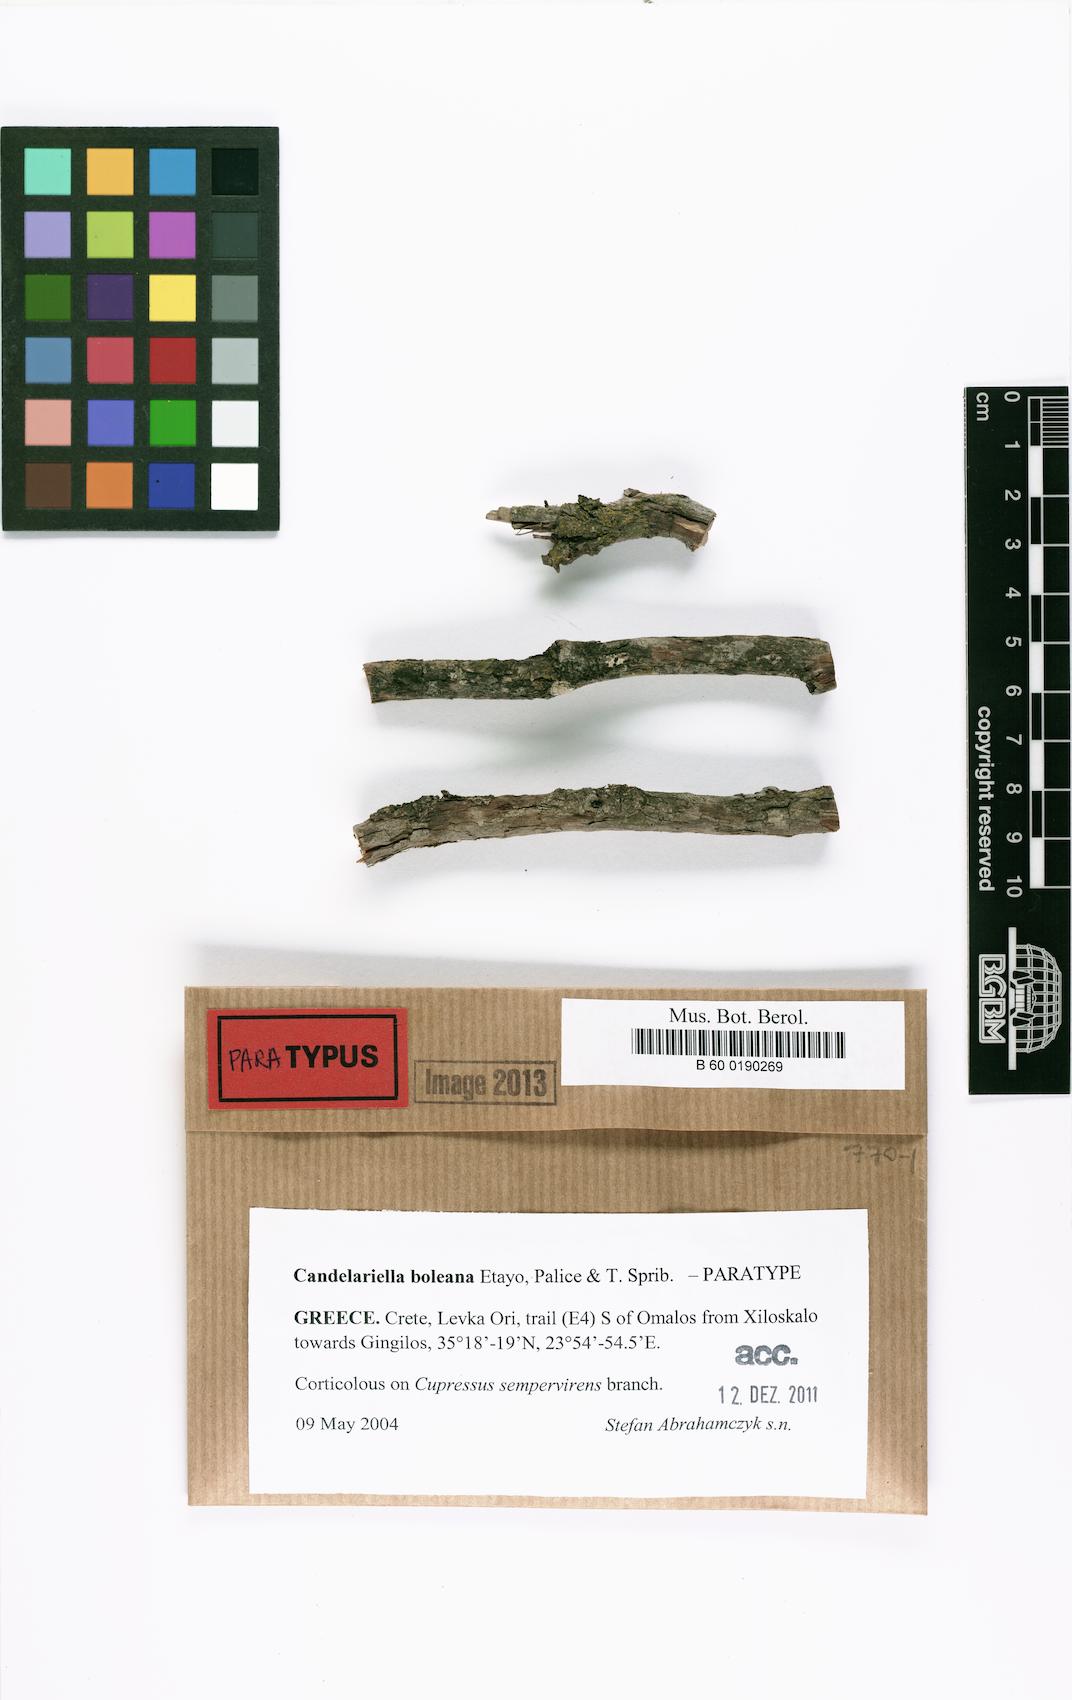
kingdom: Fungi
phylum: Ascomycota
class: Candelariomycetes
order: Candelariales
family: Candelariaceae
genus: Candelariella
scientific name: Candelariella boleana
